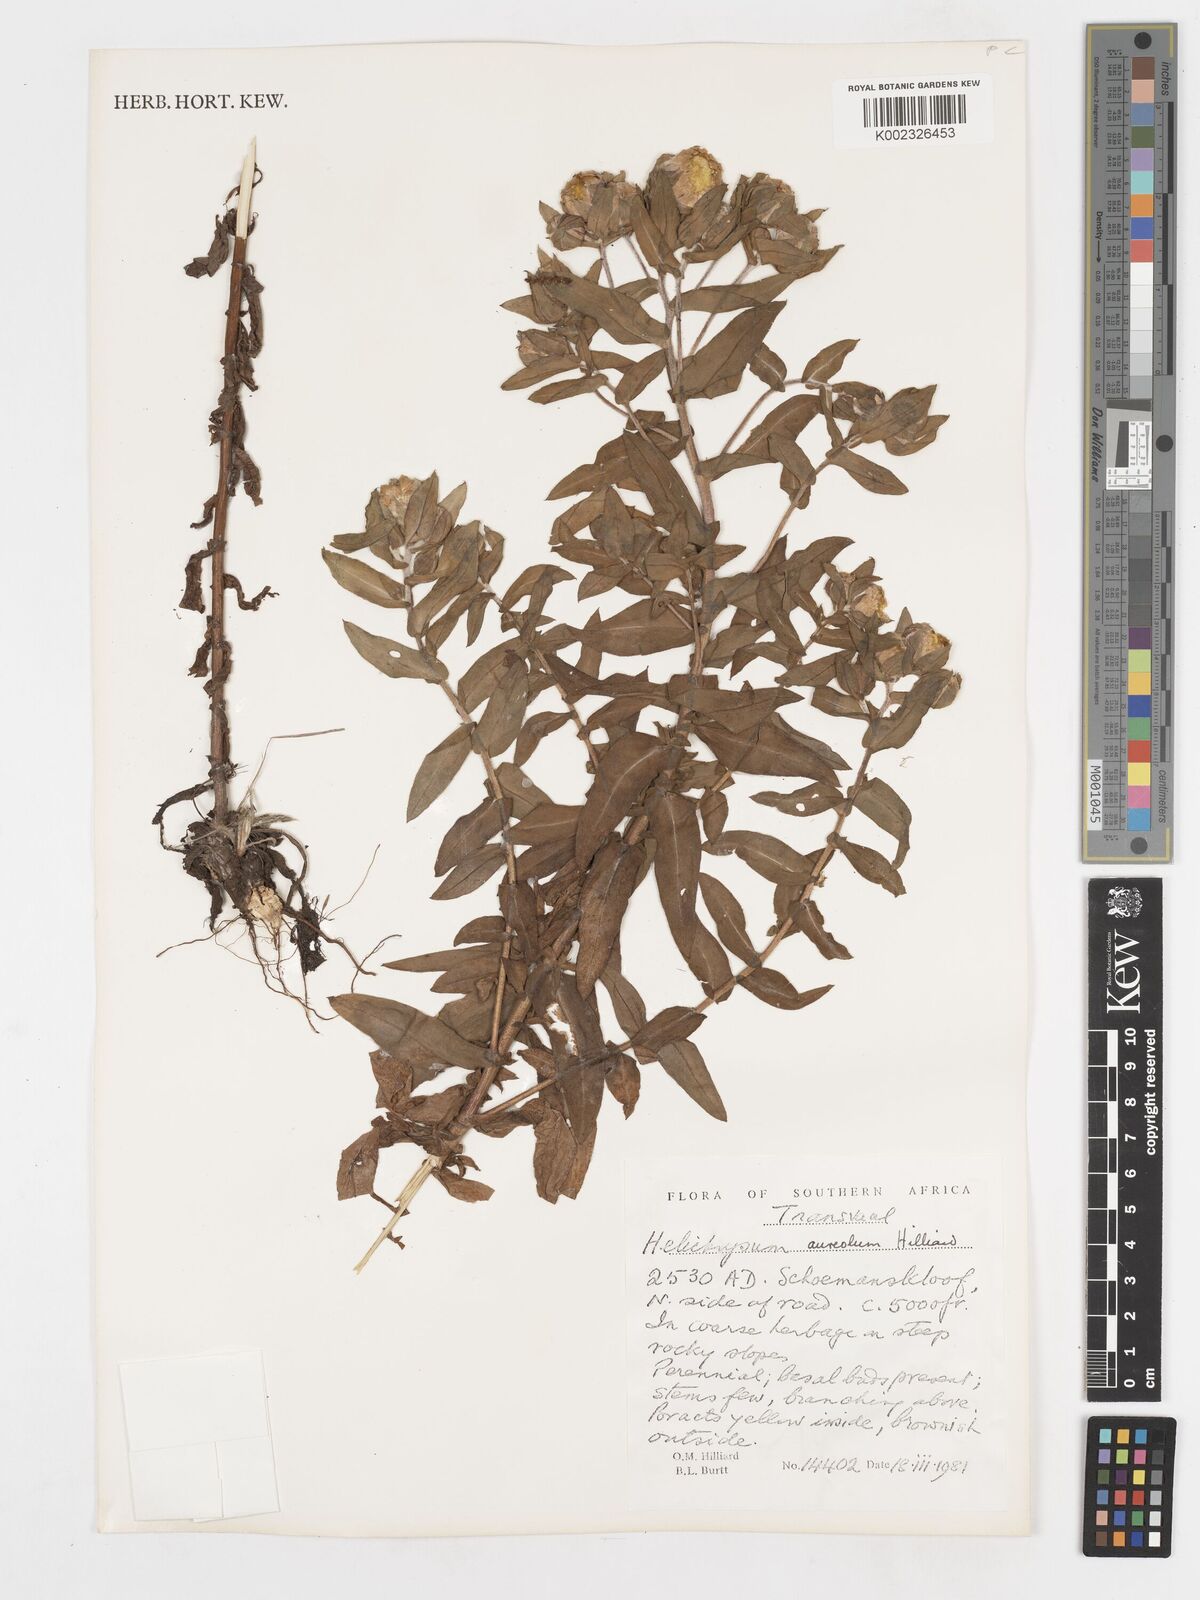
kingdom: Plantae
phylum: Tracheophyta
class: Magnoliopsida
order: Asterales
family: Asteraceae
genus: Helichrysum
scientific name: Helichrysum aureolum
